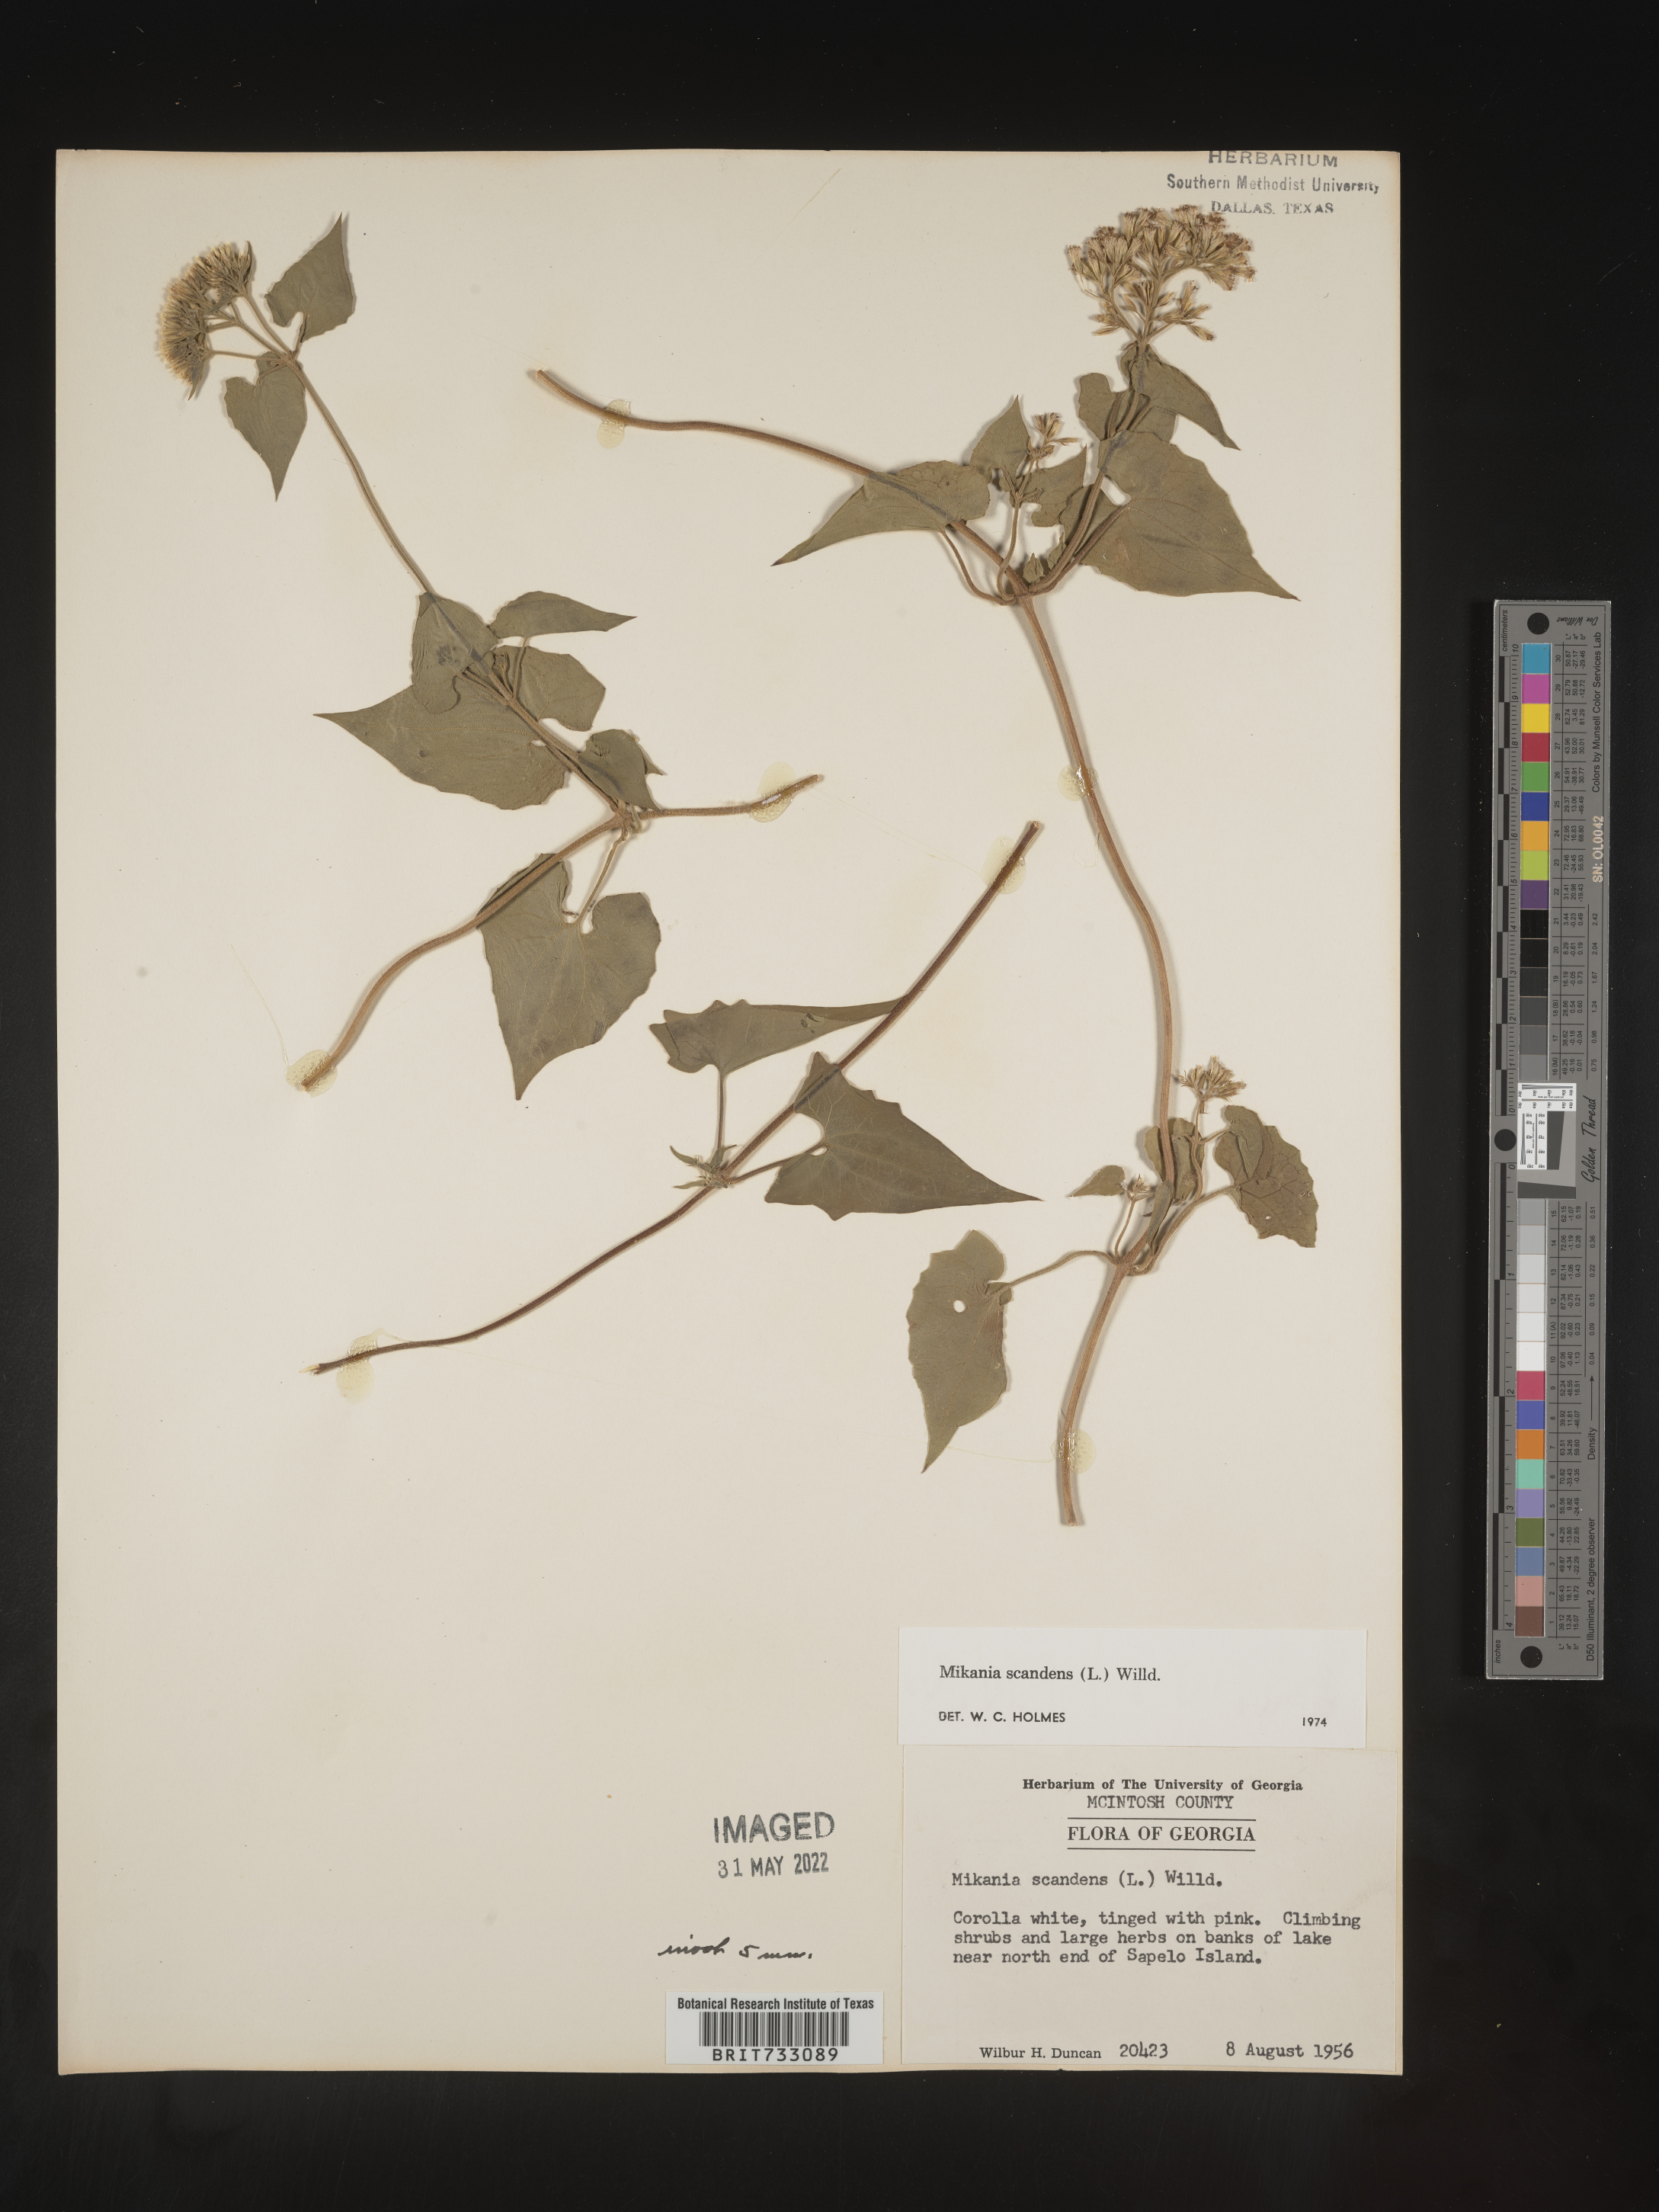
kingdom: Plantae
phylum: Tracheophyta
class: Magnoliopsida
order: Asterales
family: Asteraceae
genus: Mikania
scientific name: Mikania scandens
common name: Climbing hempvine
